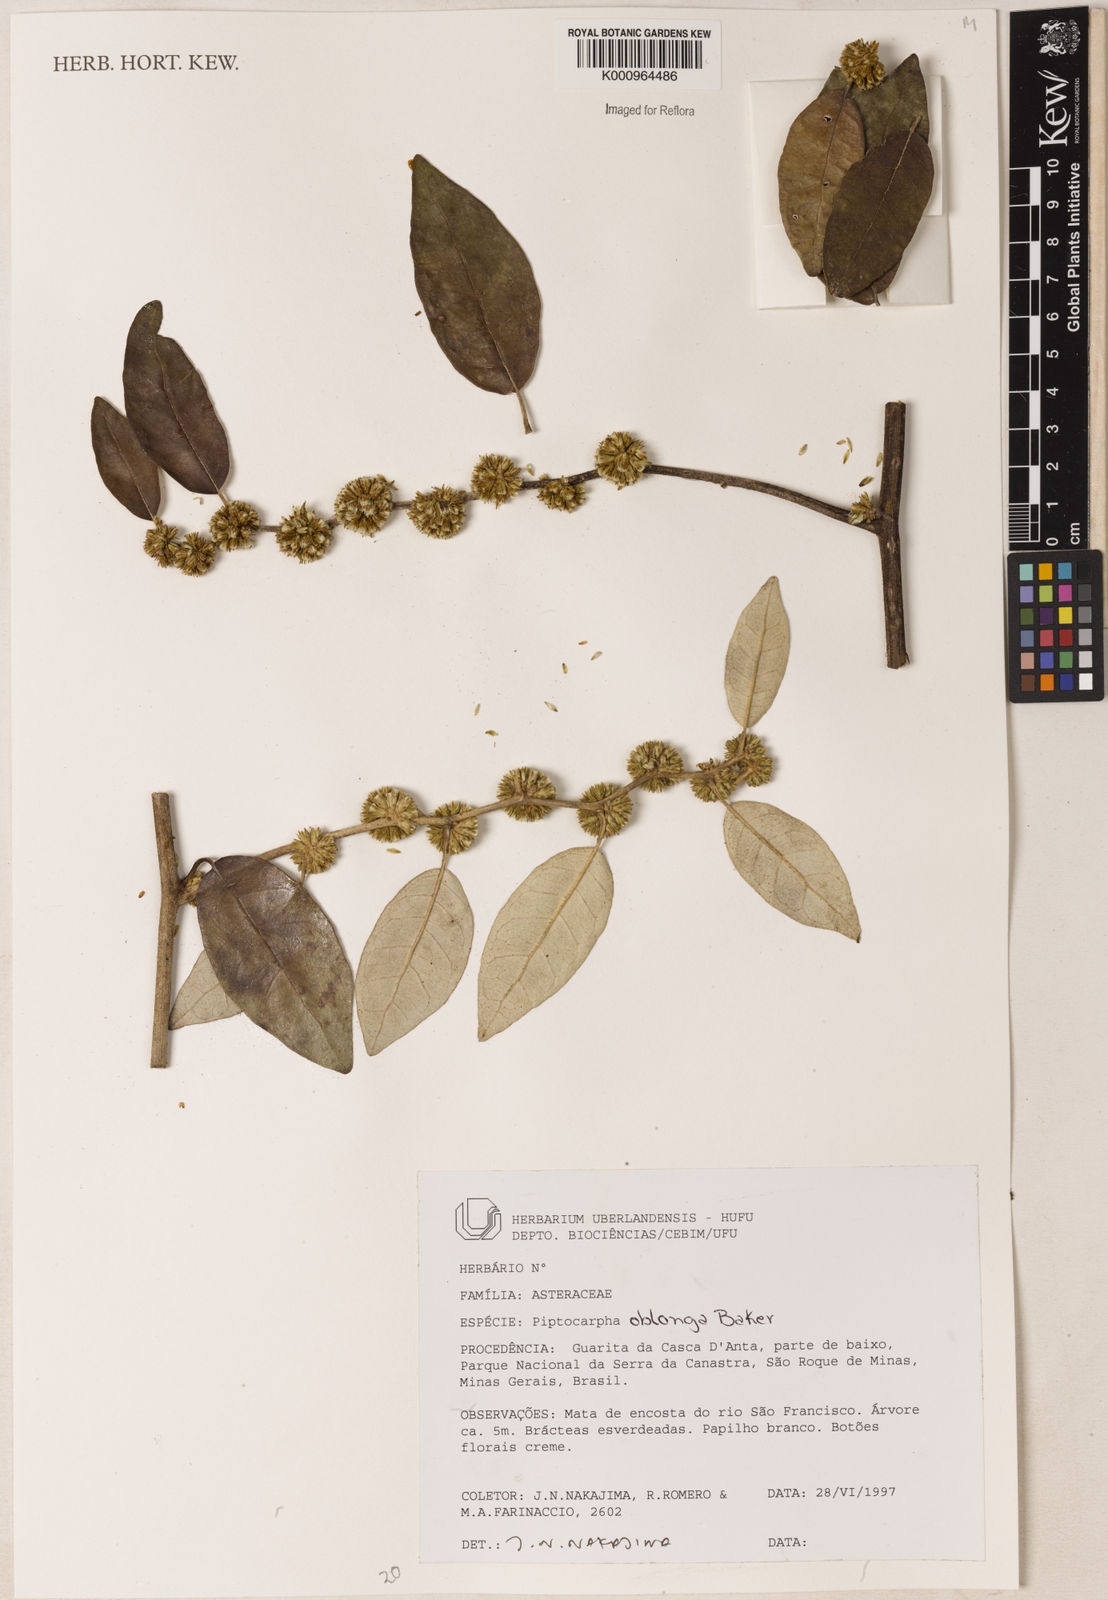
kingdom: Plantae
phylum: Tracheophyta
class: Magnoliopsida
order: Asterales
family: Asteraceae
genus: Piptocarpha
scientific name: Piptocarpha oblonga
